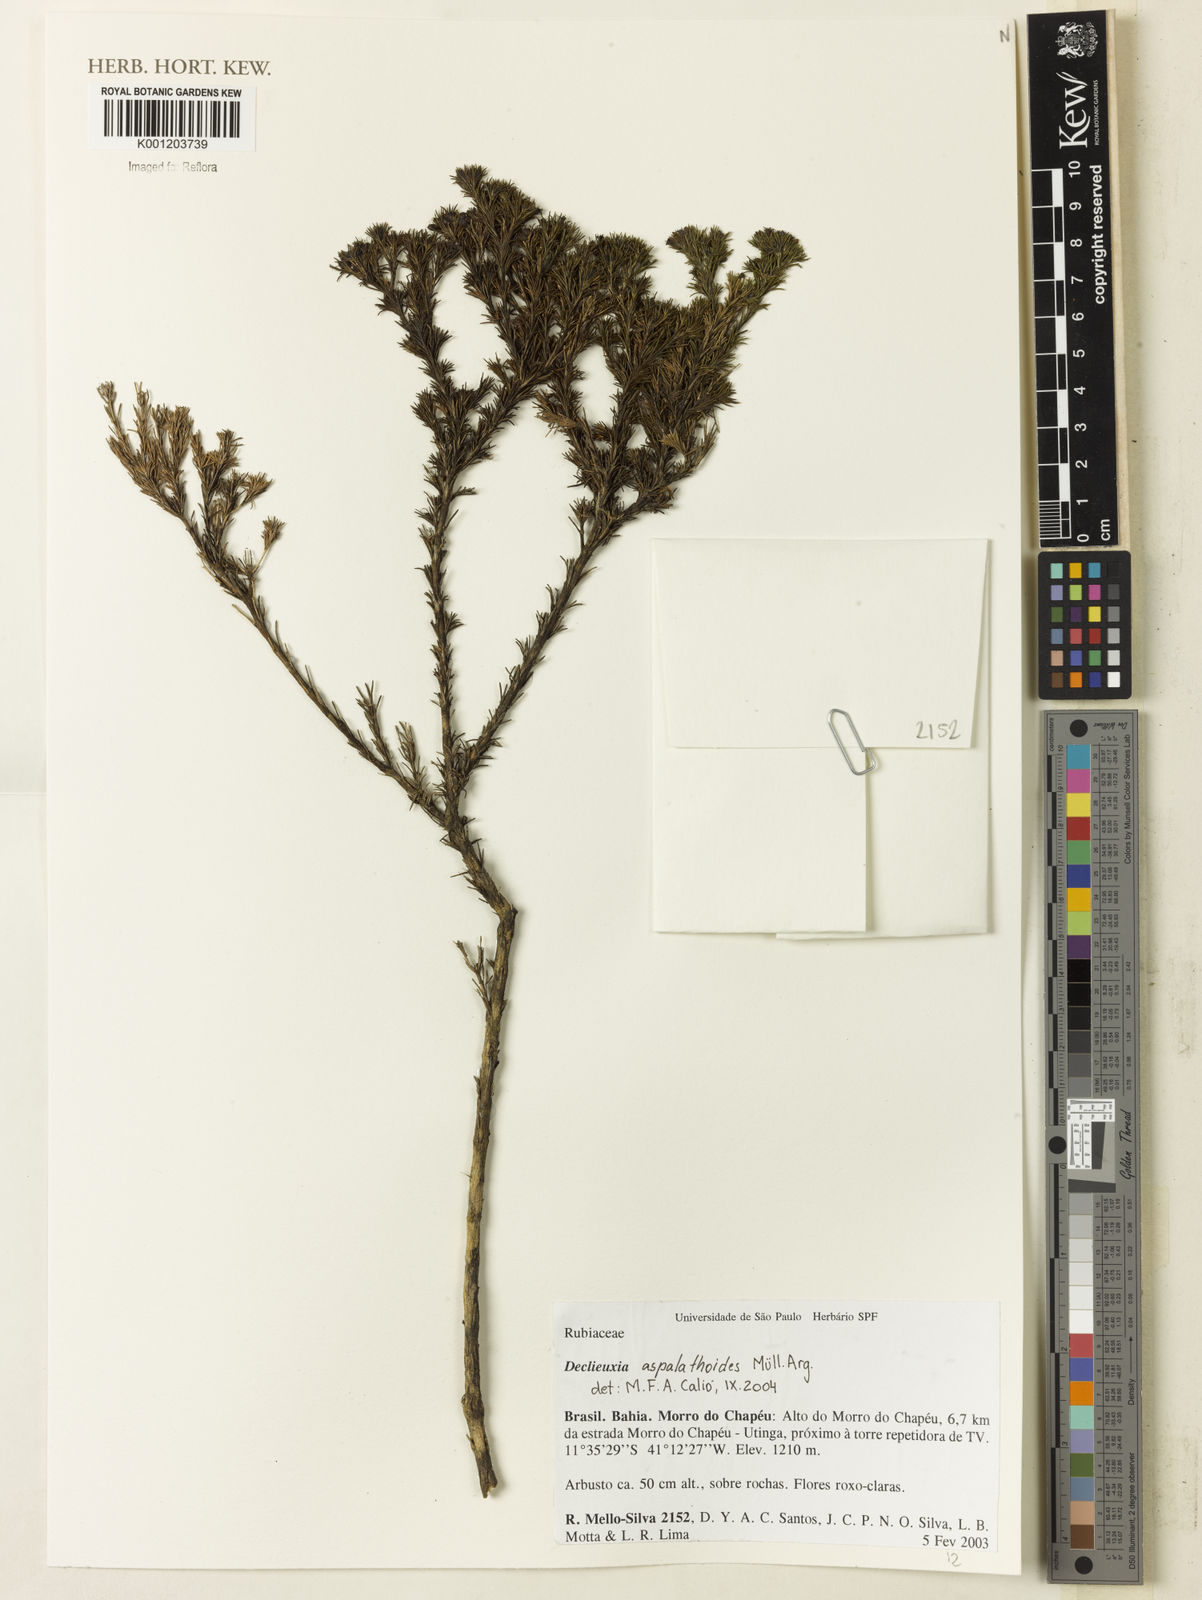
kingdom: Plantae
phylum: Tracheophyta
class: Magnoliopsida
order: Gentianales
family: Rubiaceae
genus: Declieuxia
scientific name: Declieuxia
